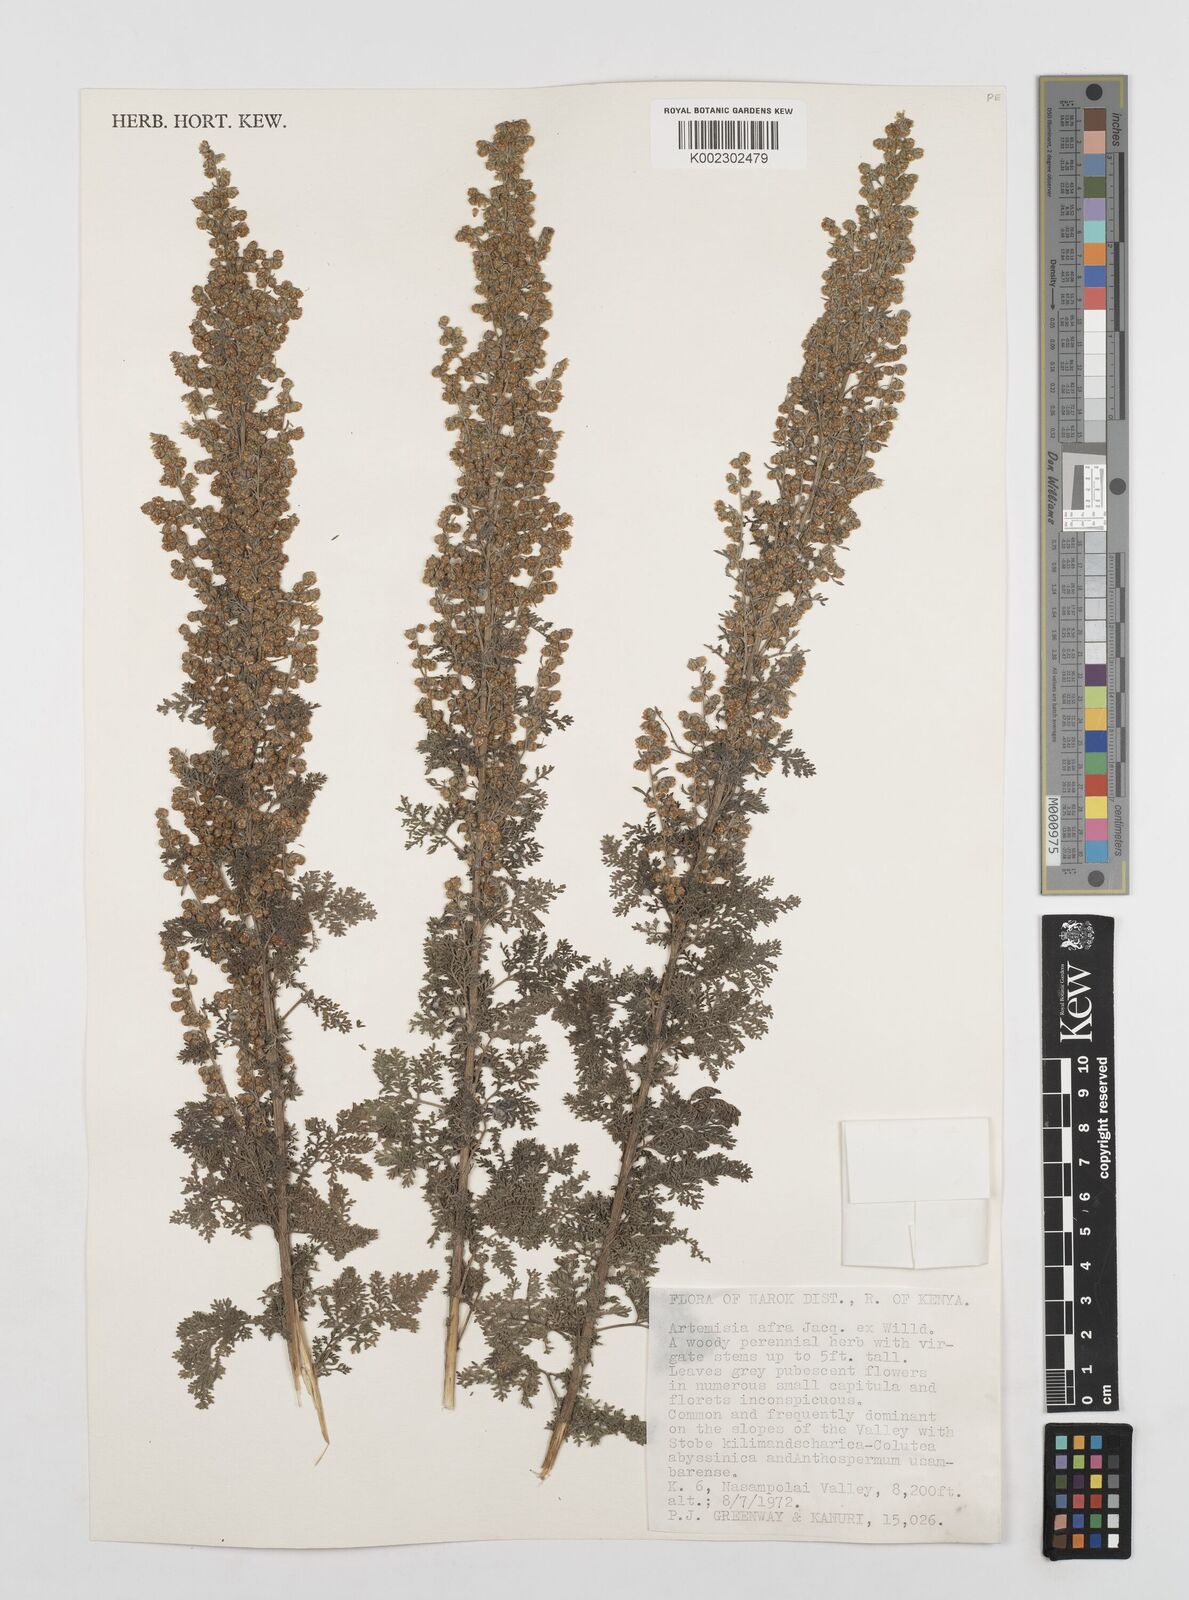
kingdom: Plantae
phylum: Tracheophyta
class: Magnoliopsida
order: Asterales
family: Asteraceae
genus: Artemisia
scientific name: Artemisia afra
